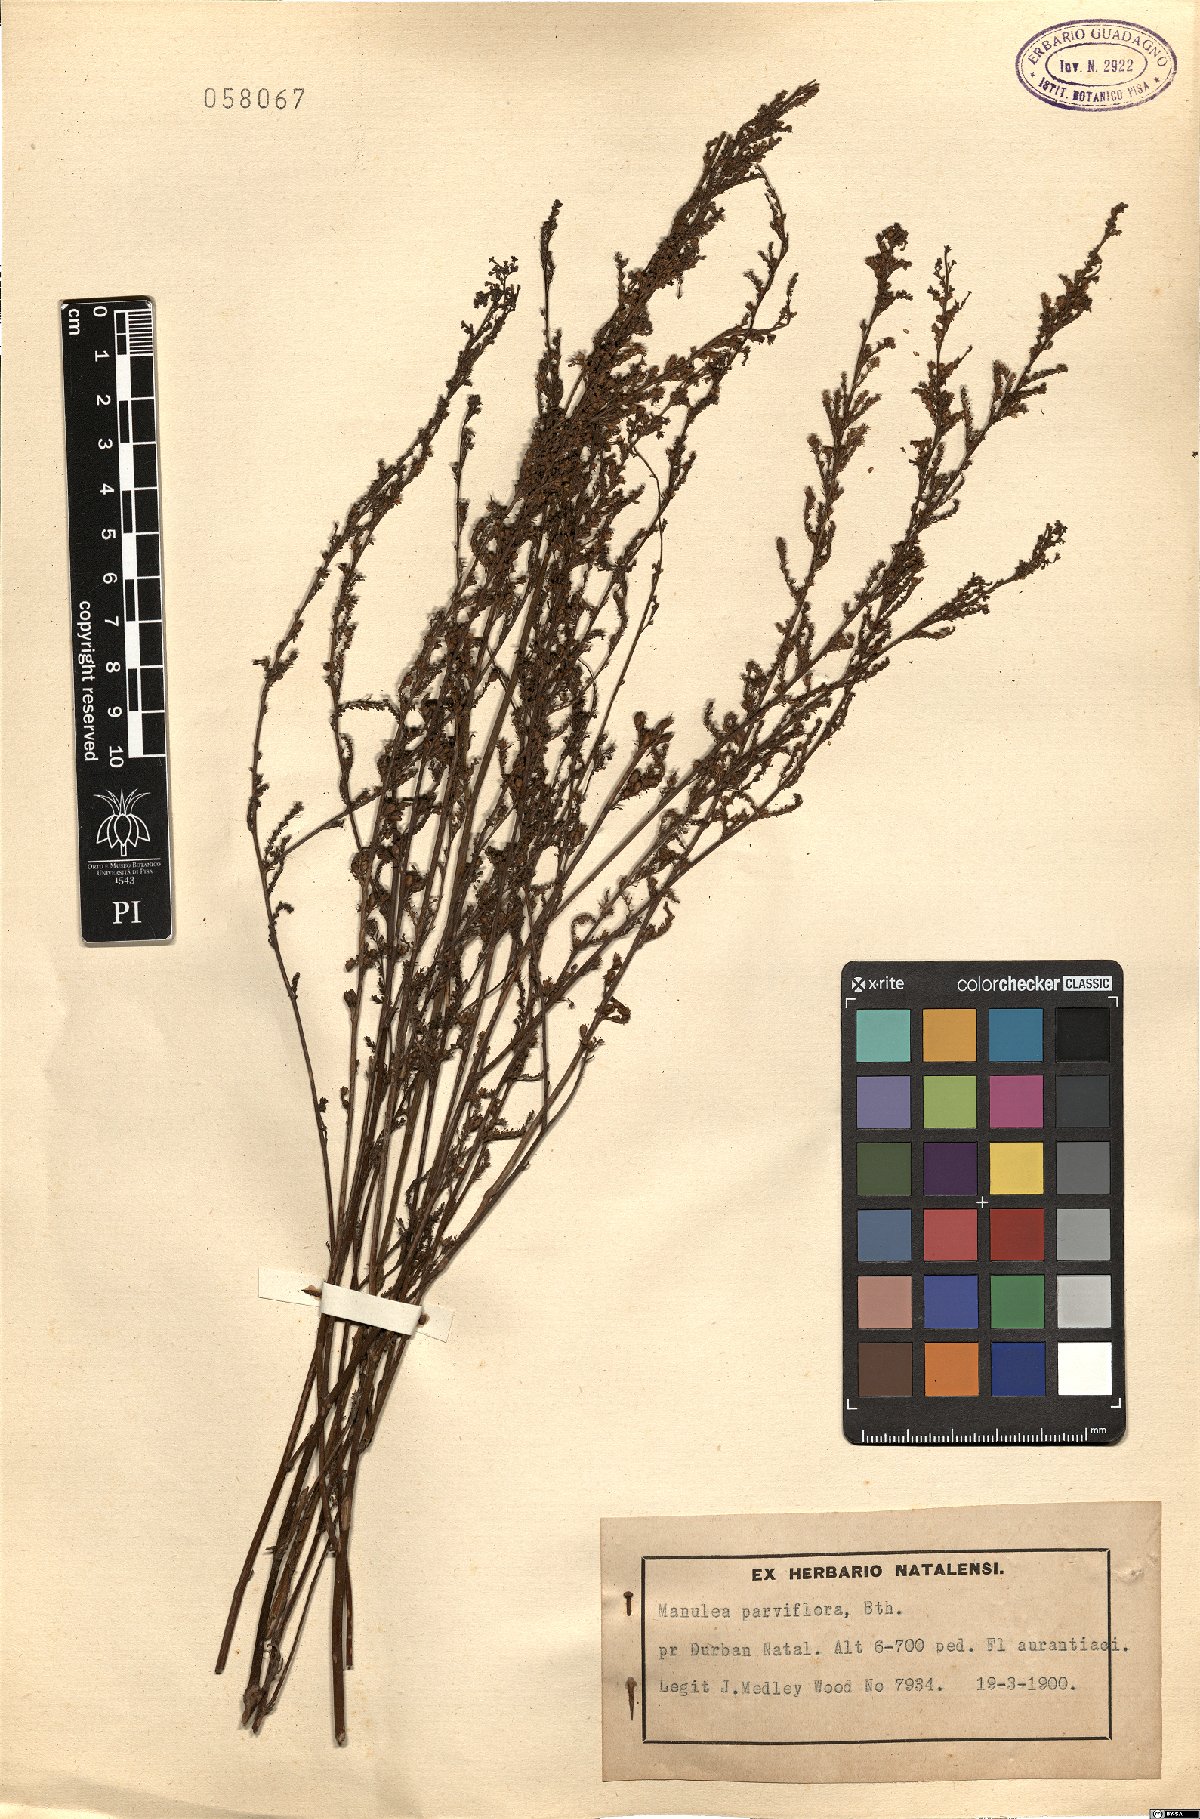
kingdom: Plantae
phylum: Tracheophyta
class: Magnoliopsida
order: Lamiales
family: Scrophulariaceae
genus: Manulea
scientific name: Manulea parviflora
